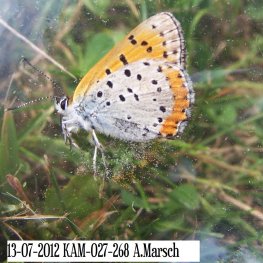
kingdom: Animalia
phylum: Arthropoda
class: Insecta
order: Lepidoptera
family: Sesiidae
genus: Sesia
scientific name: Sesia Lycaena hyllus
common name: Bronze Copper
